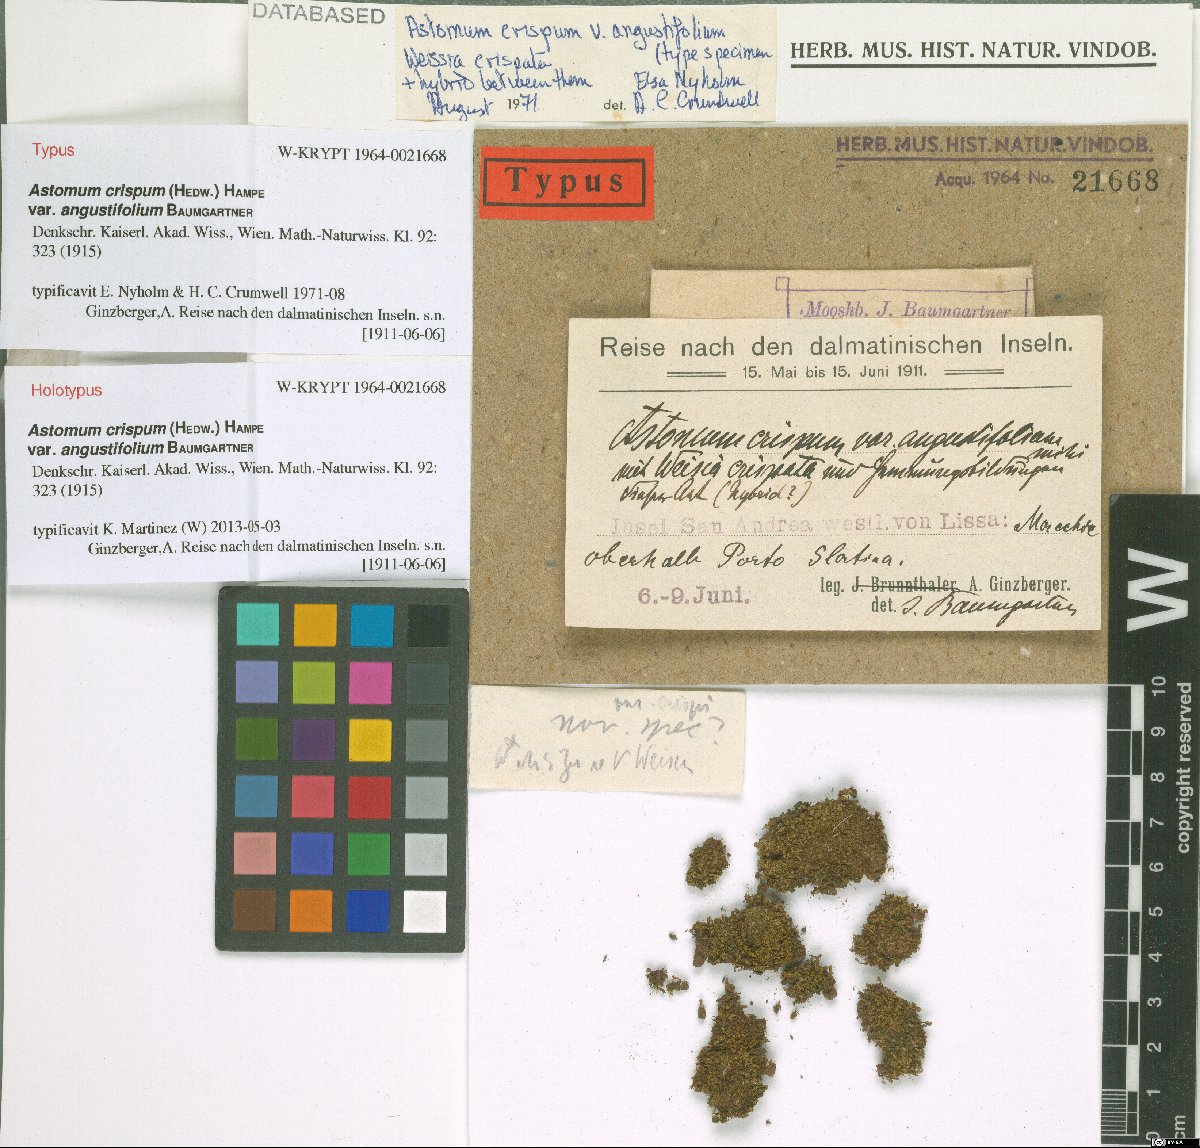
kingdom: Plantae
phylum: Bryophyta
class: Bryopsida
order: Pottiales
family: Pottiaceae
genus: Weissia
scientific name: Weissia angustifolia
